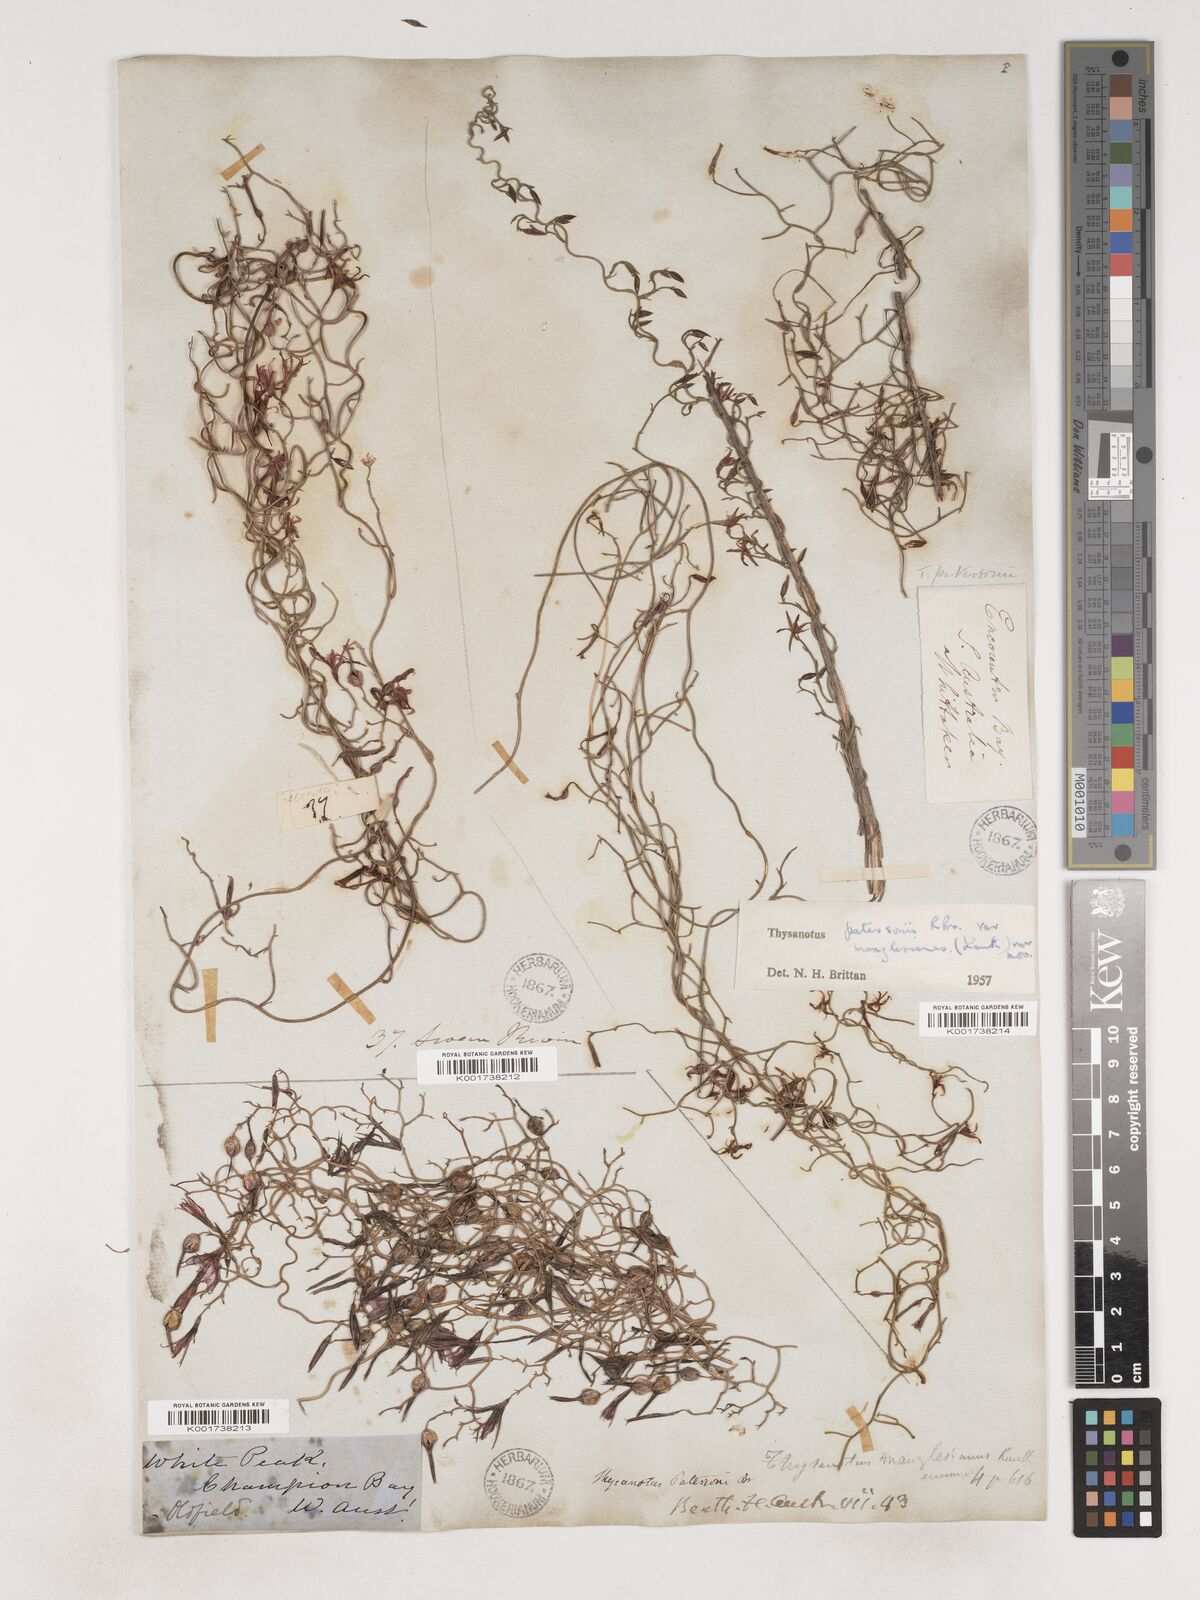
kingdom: Plantae
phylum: Tracheophyta
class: Liliopsida
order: Asparagales
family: Asparagaceae
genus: Thysanotus
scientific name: Thysanotus manglesianus
